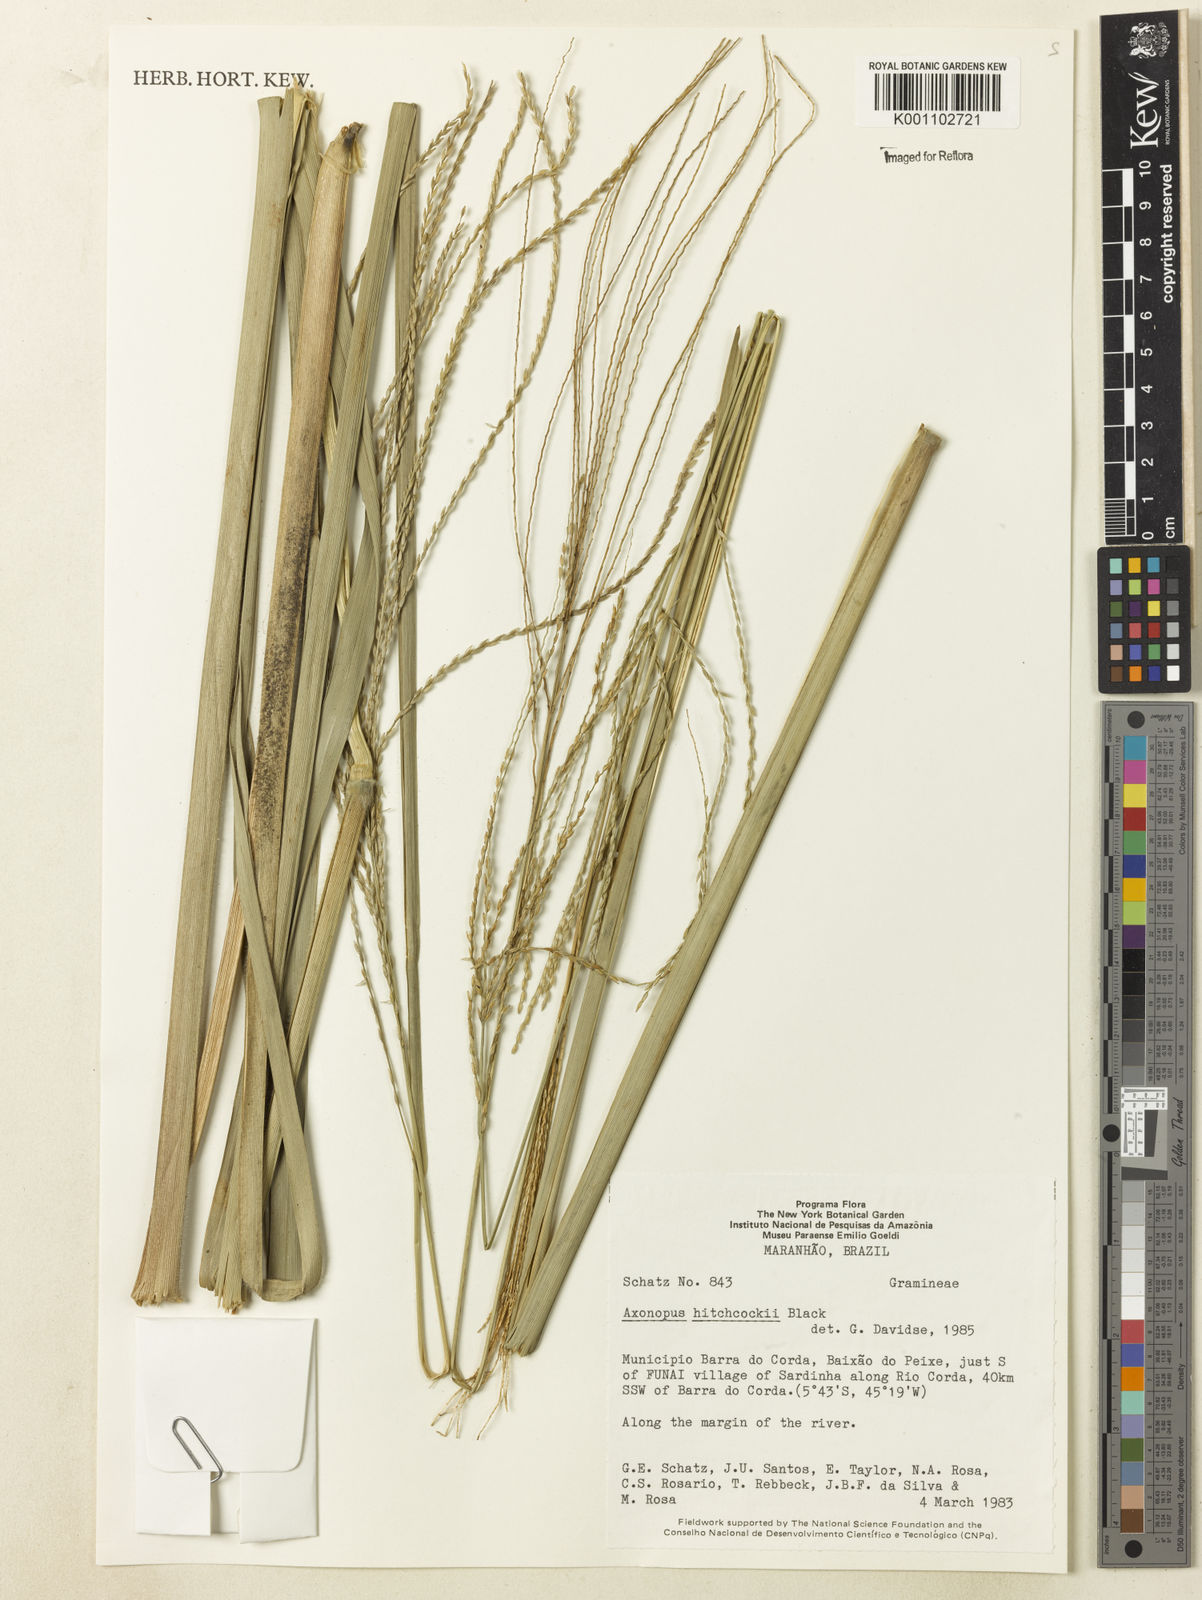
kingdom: Plantae
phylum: Tracheophyta
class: Liliopsida
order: Poales
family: Poaceae
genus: Axonopus
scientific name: Axonopus
